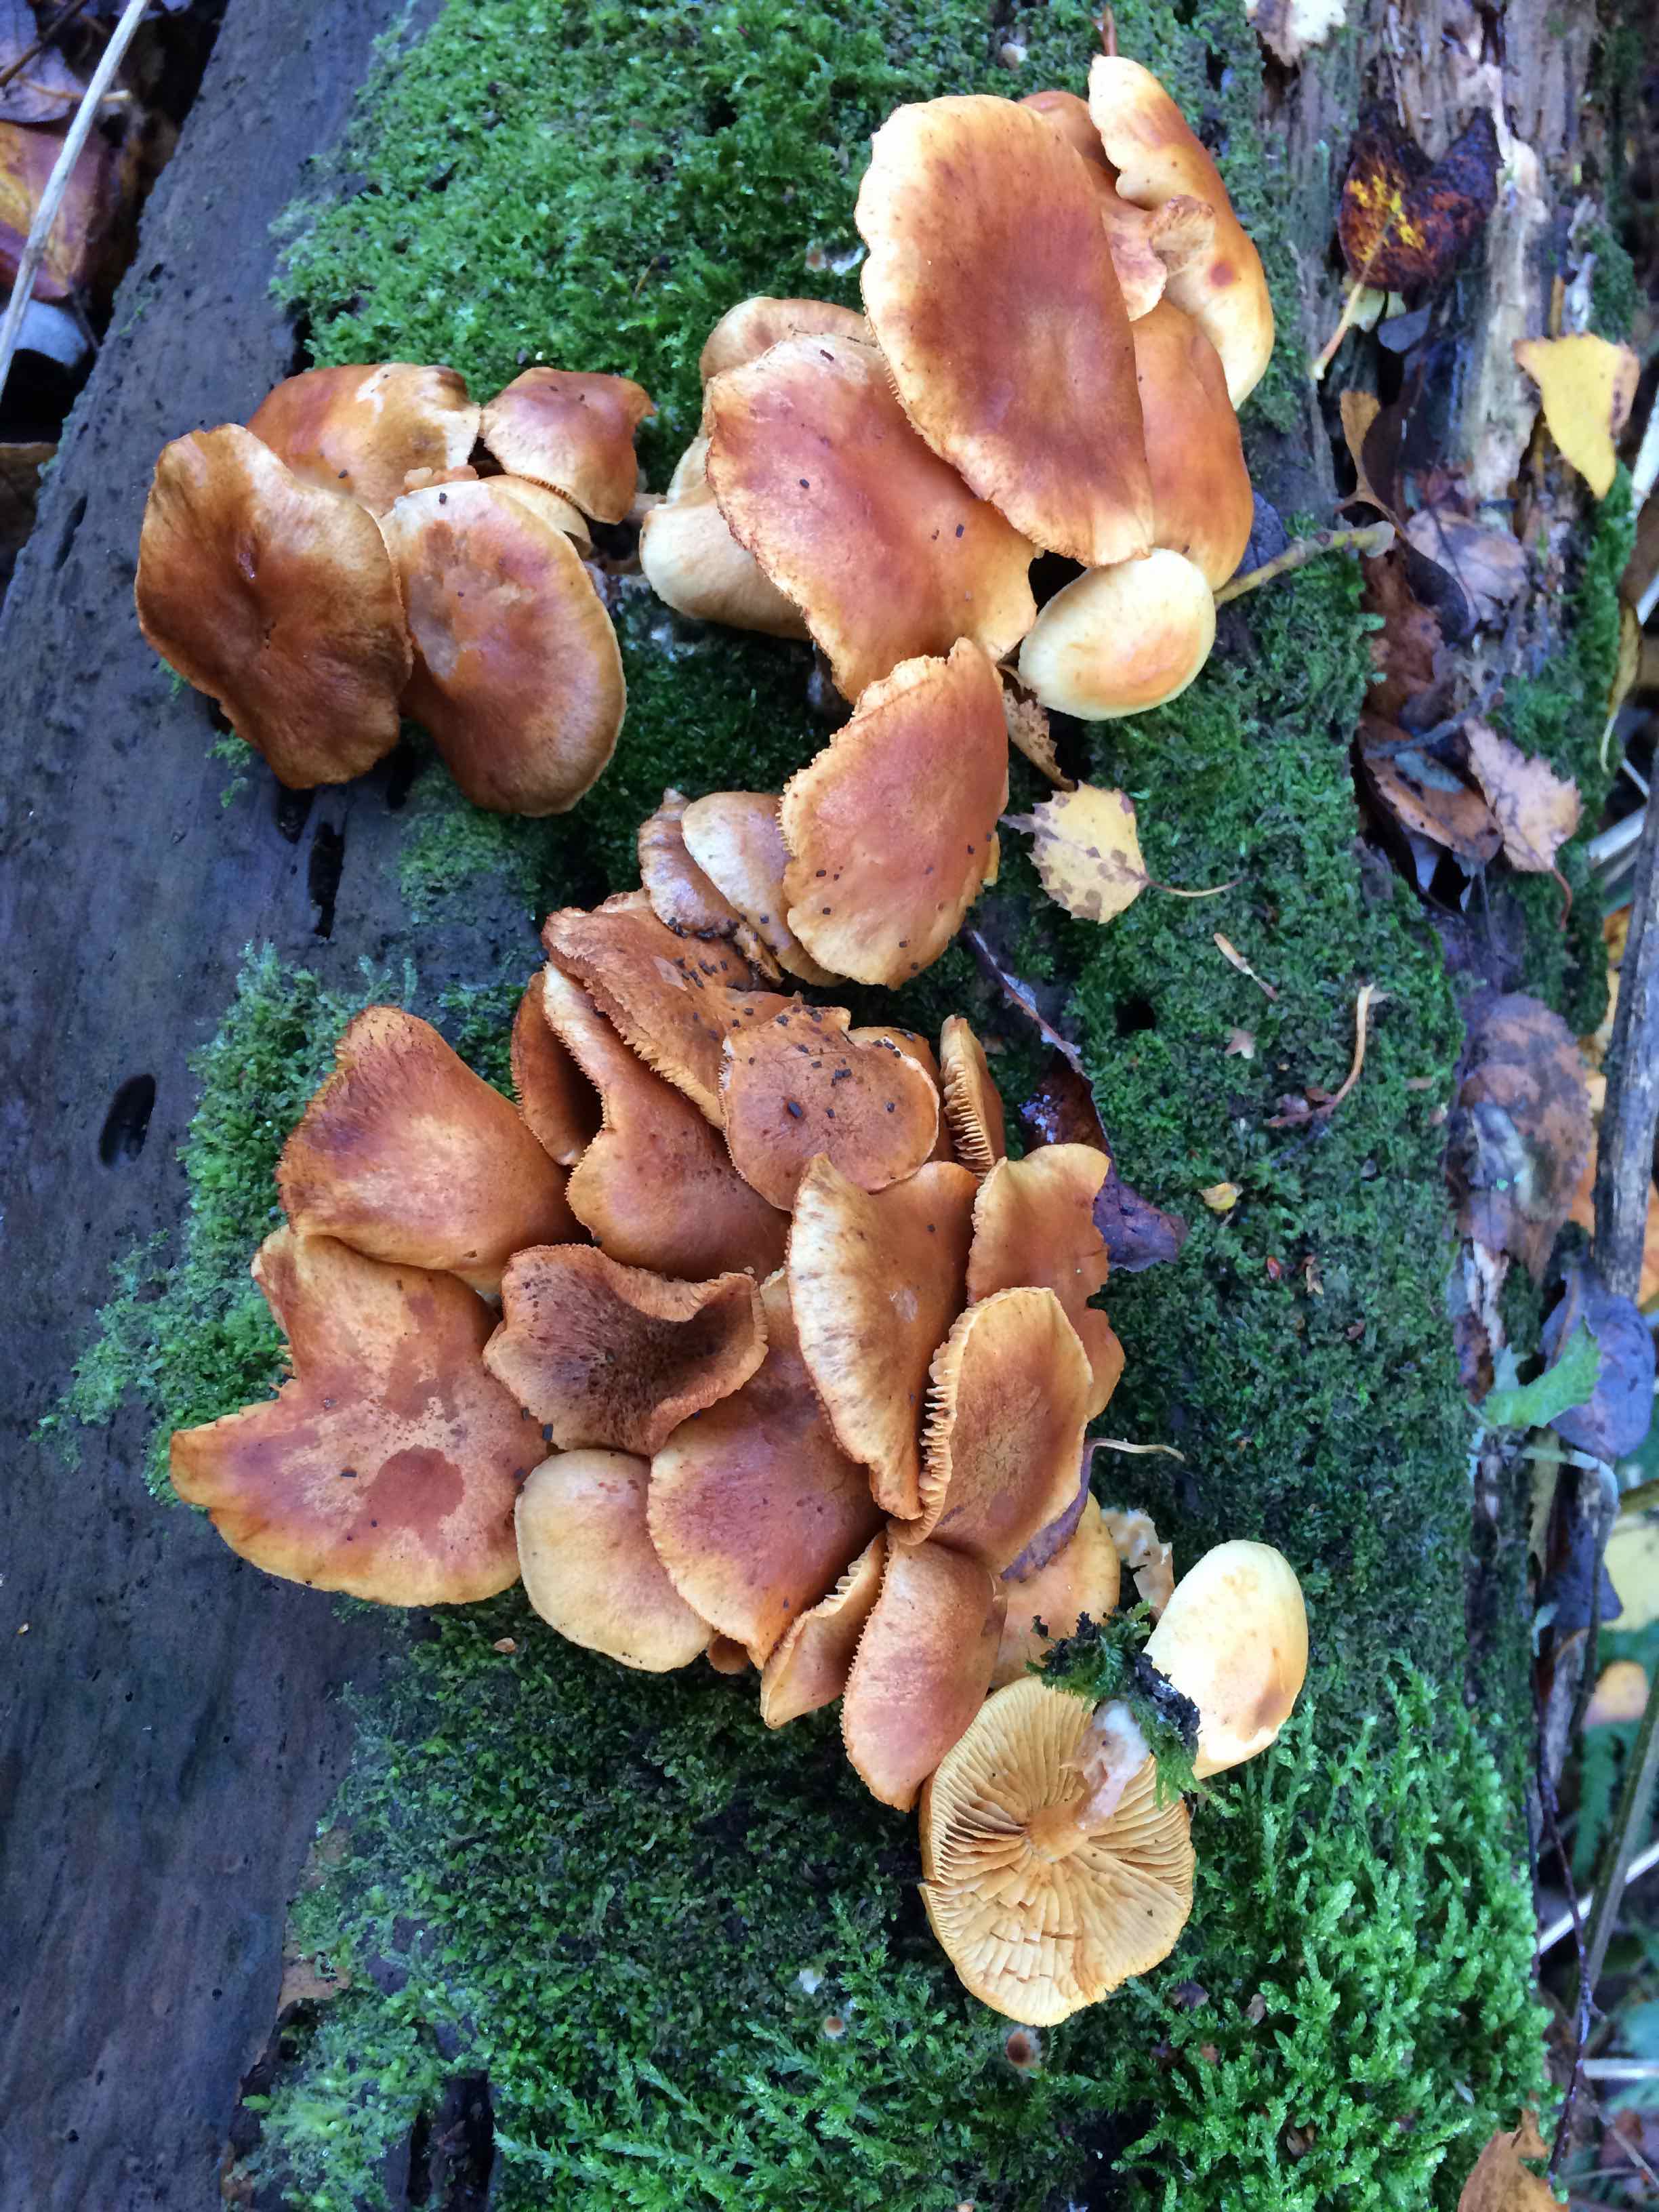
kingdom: Fungi
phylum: Basidiomycota
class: Agaricomycetes
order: Agaricales
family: Hymenogastraceae
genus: Gymnopilus
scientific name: Gymnopilus penetrans
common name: plettet flammehat
